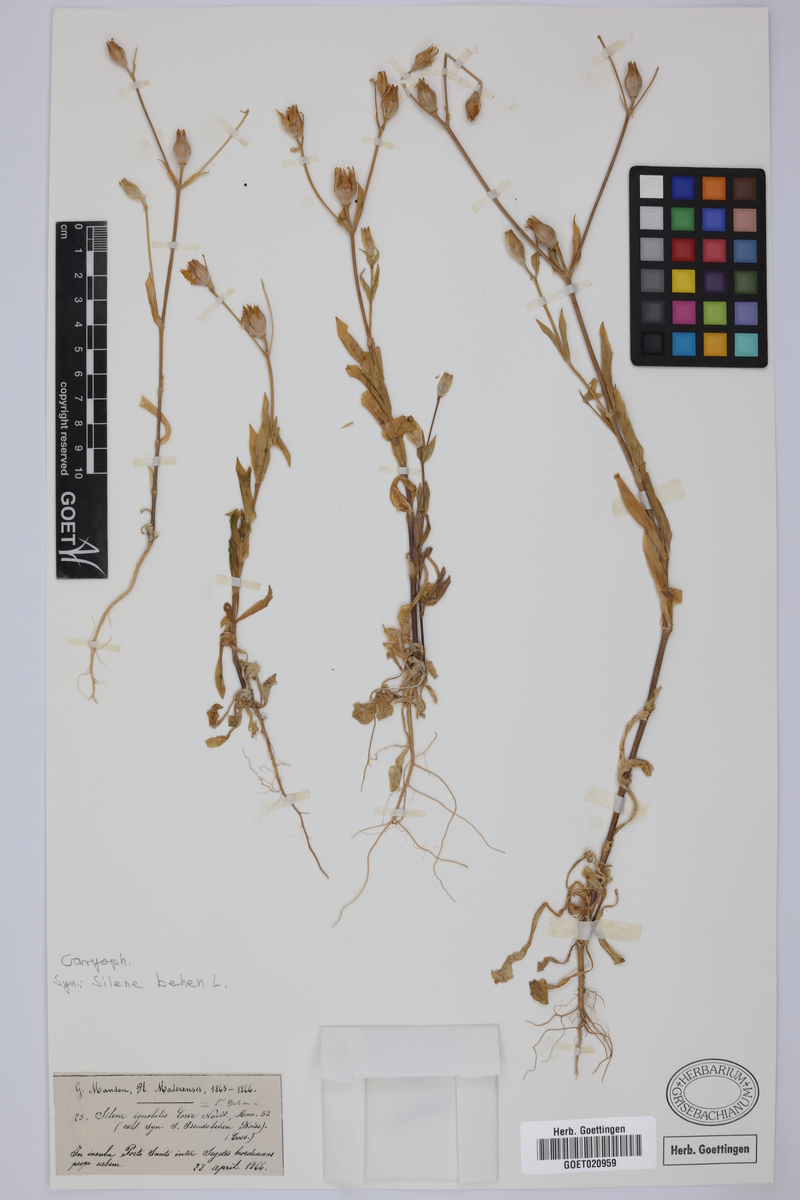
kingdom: Plantae
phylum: Tracheophyta
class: Magnoliopsida
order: Caryophyllales
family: Caryophyllaceae
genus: Silene
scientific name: Silene behen
